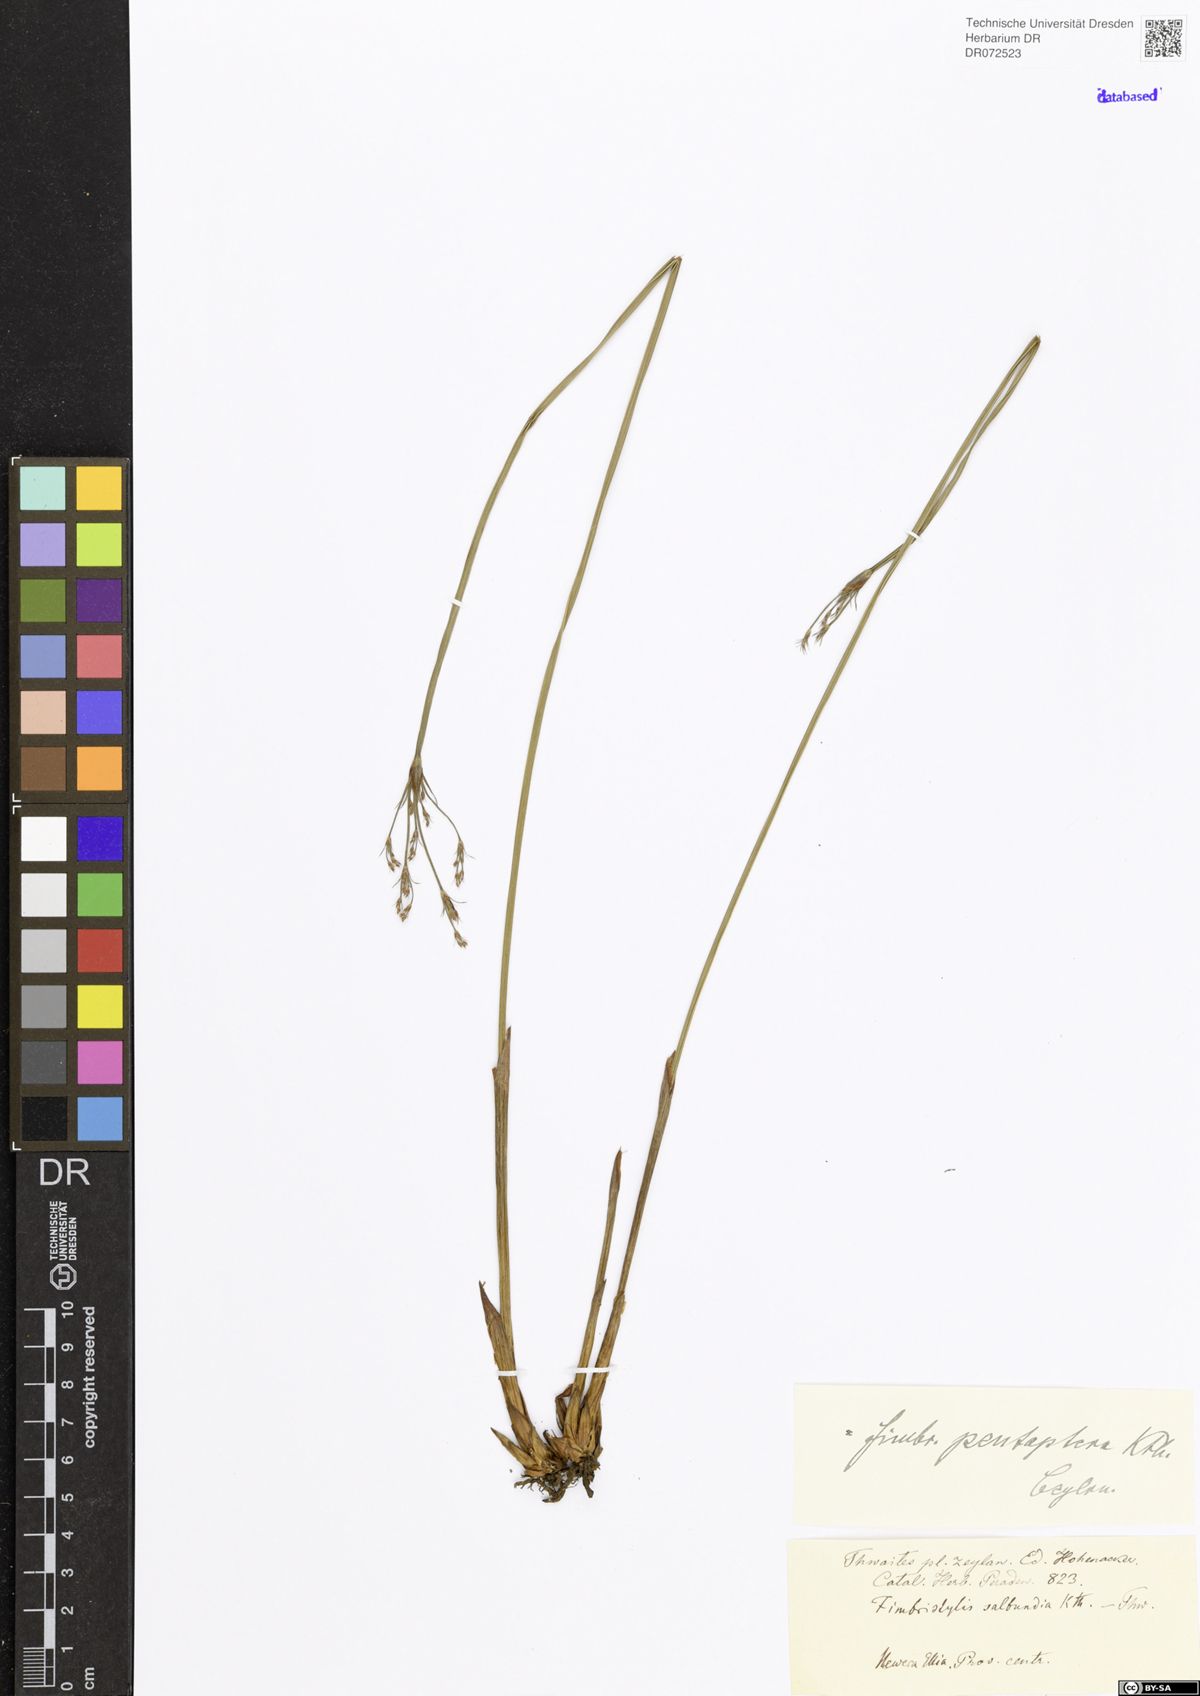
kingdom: Plantae
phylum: Tracheophyta
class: Liliopsida
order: Poales
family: Cyperaceae
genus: Fimbristylis
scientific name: Fimbristylis salbundia
